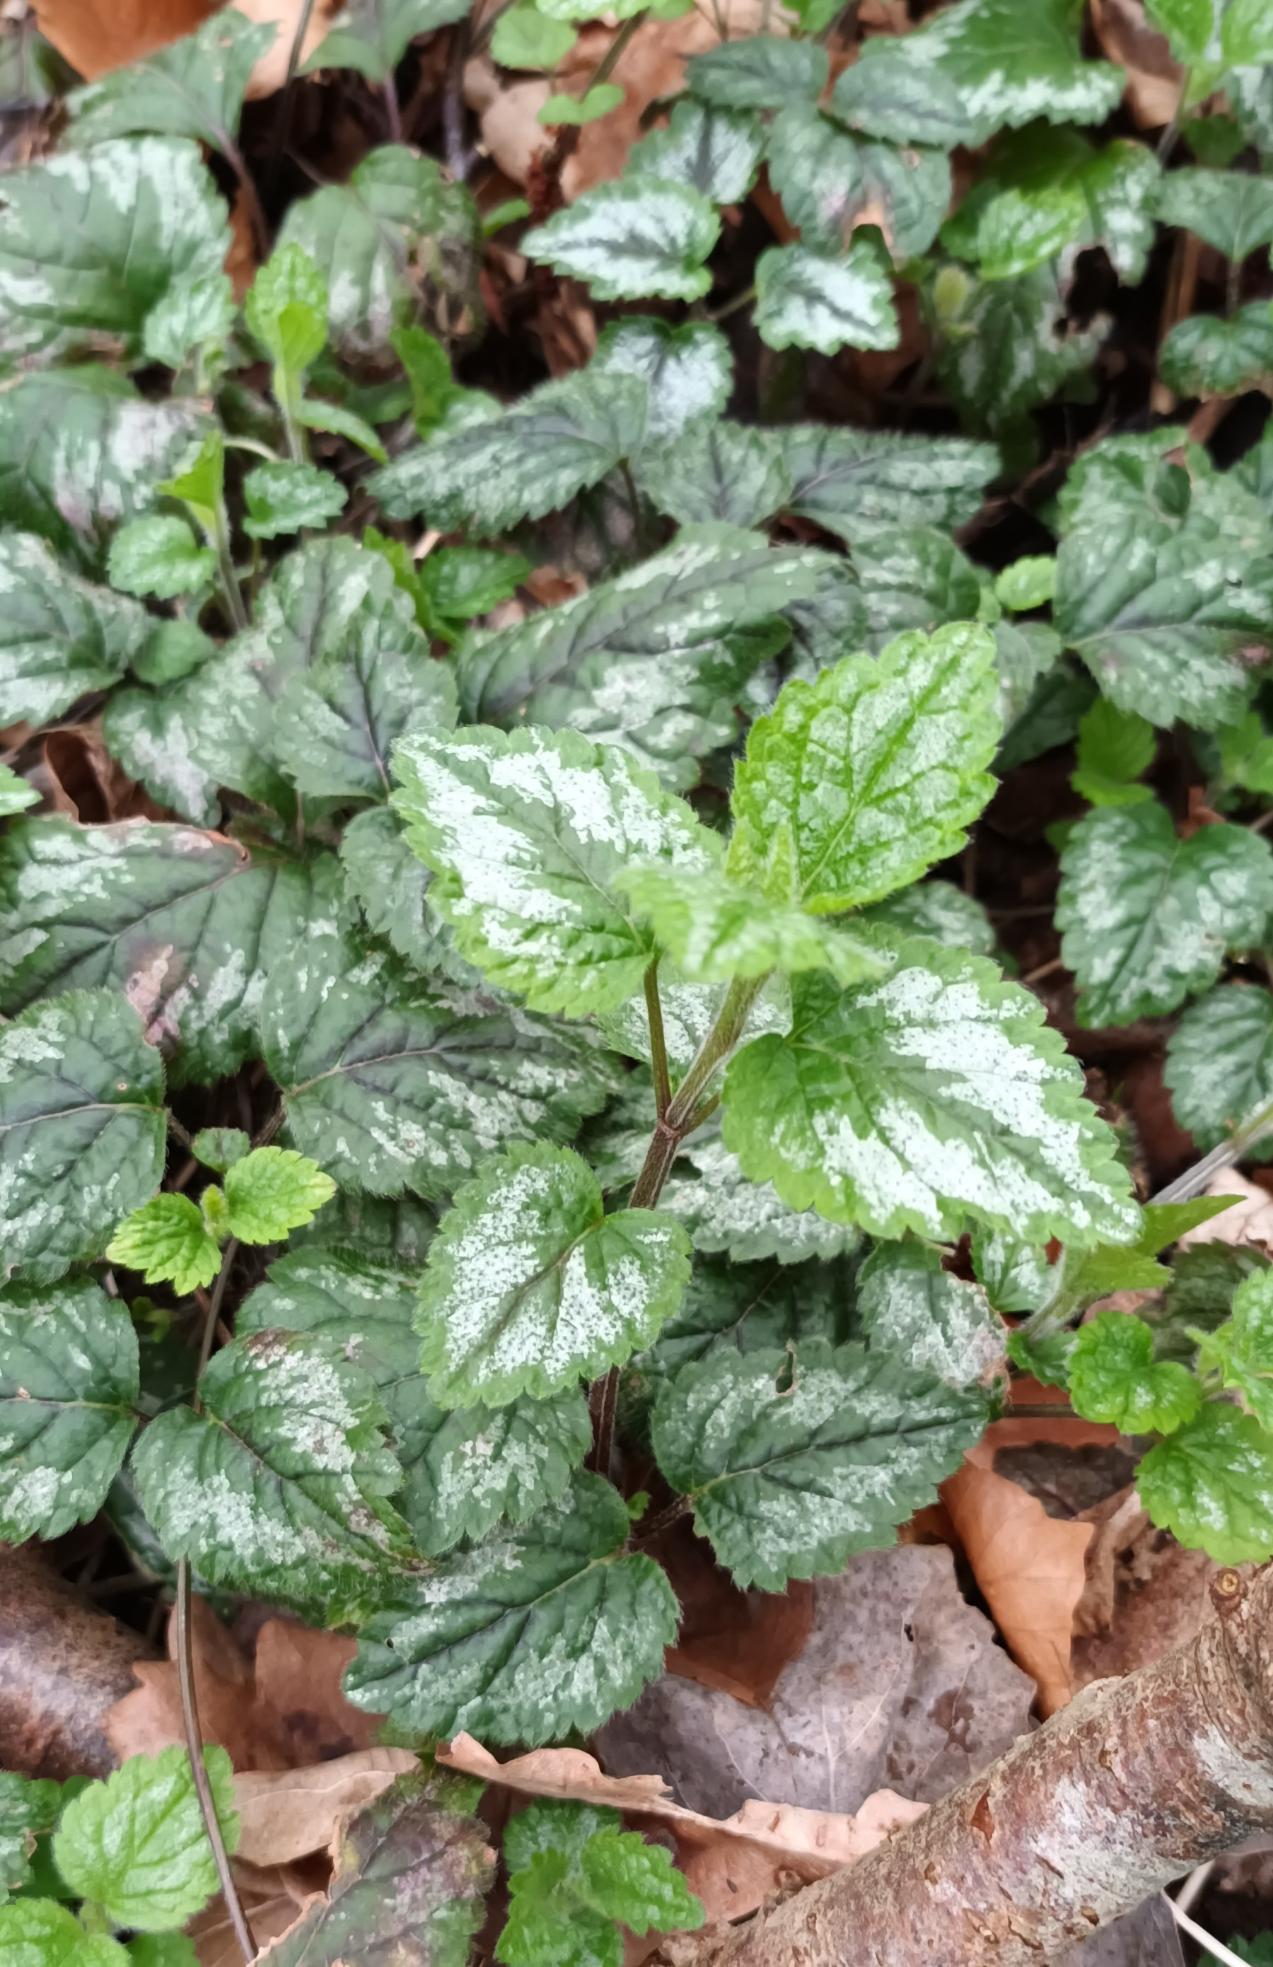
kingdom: Plantae
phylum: Tracheophyta
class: Magnoliopsida
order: Lamiales
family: Lamiaceae
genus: Lamium
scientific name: Lamium galeobdolon
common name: Have-guldnælde
